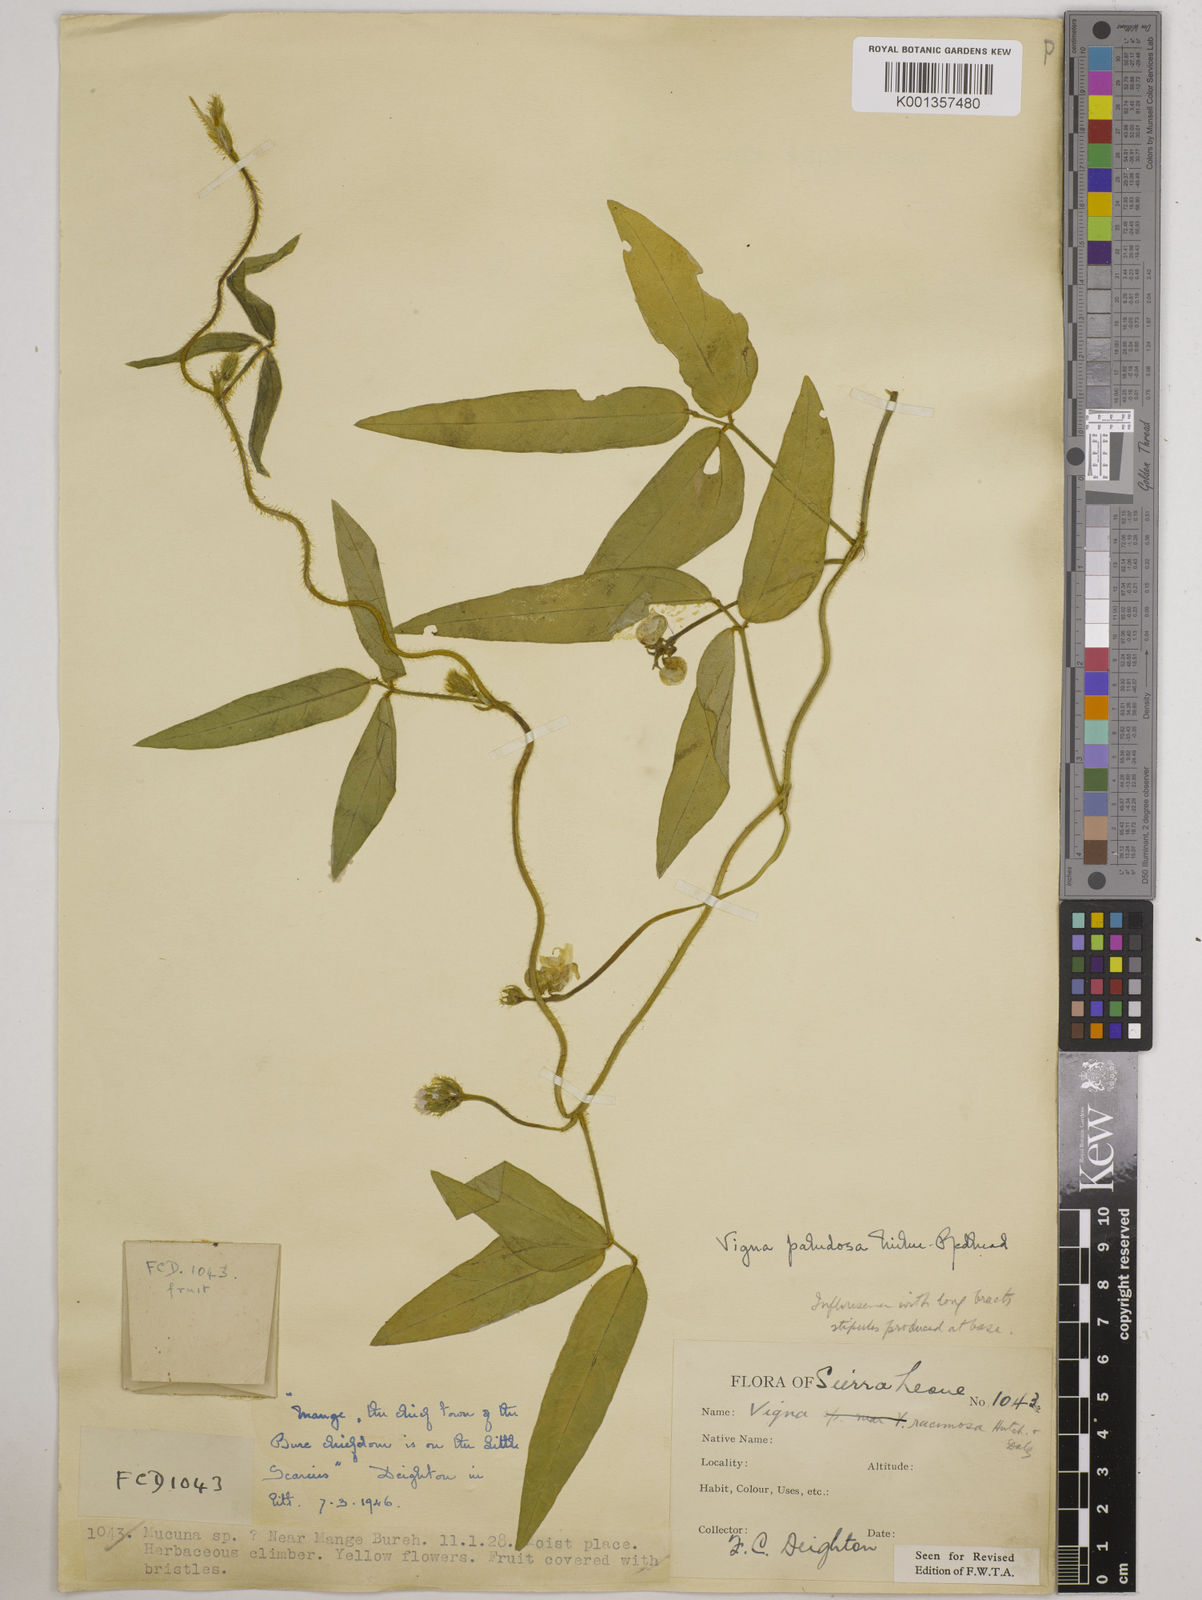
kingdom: Plantae
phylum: Tracheophyta
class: Magnoliopsida
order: Fabales
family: Fabaceae
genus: Vigna
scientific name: Vigna longifolia
